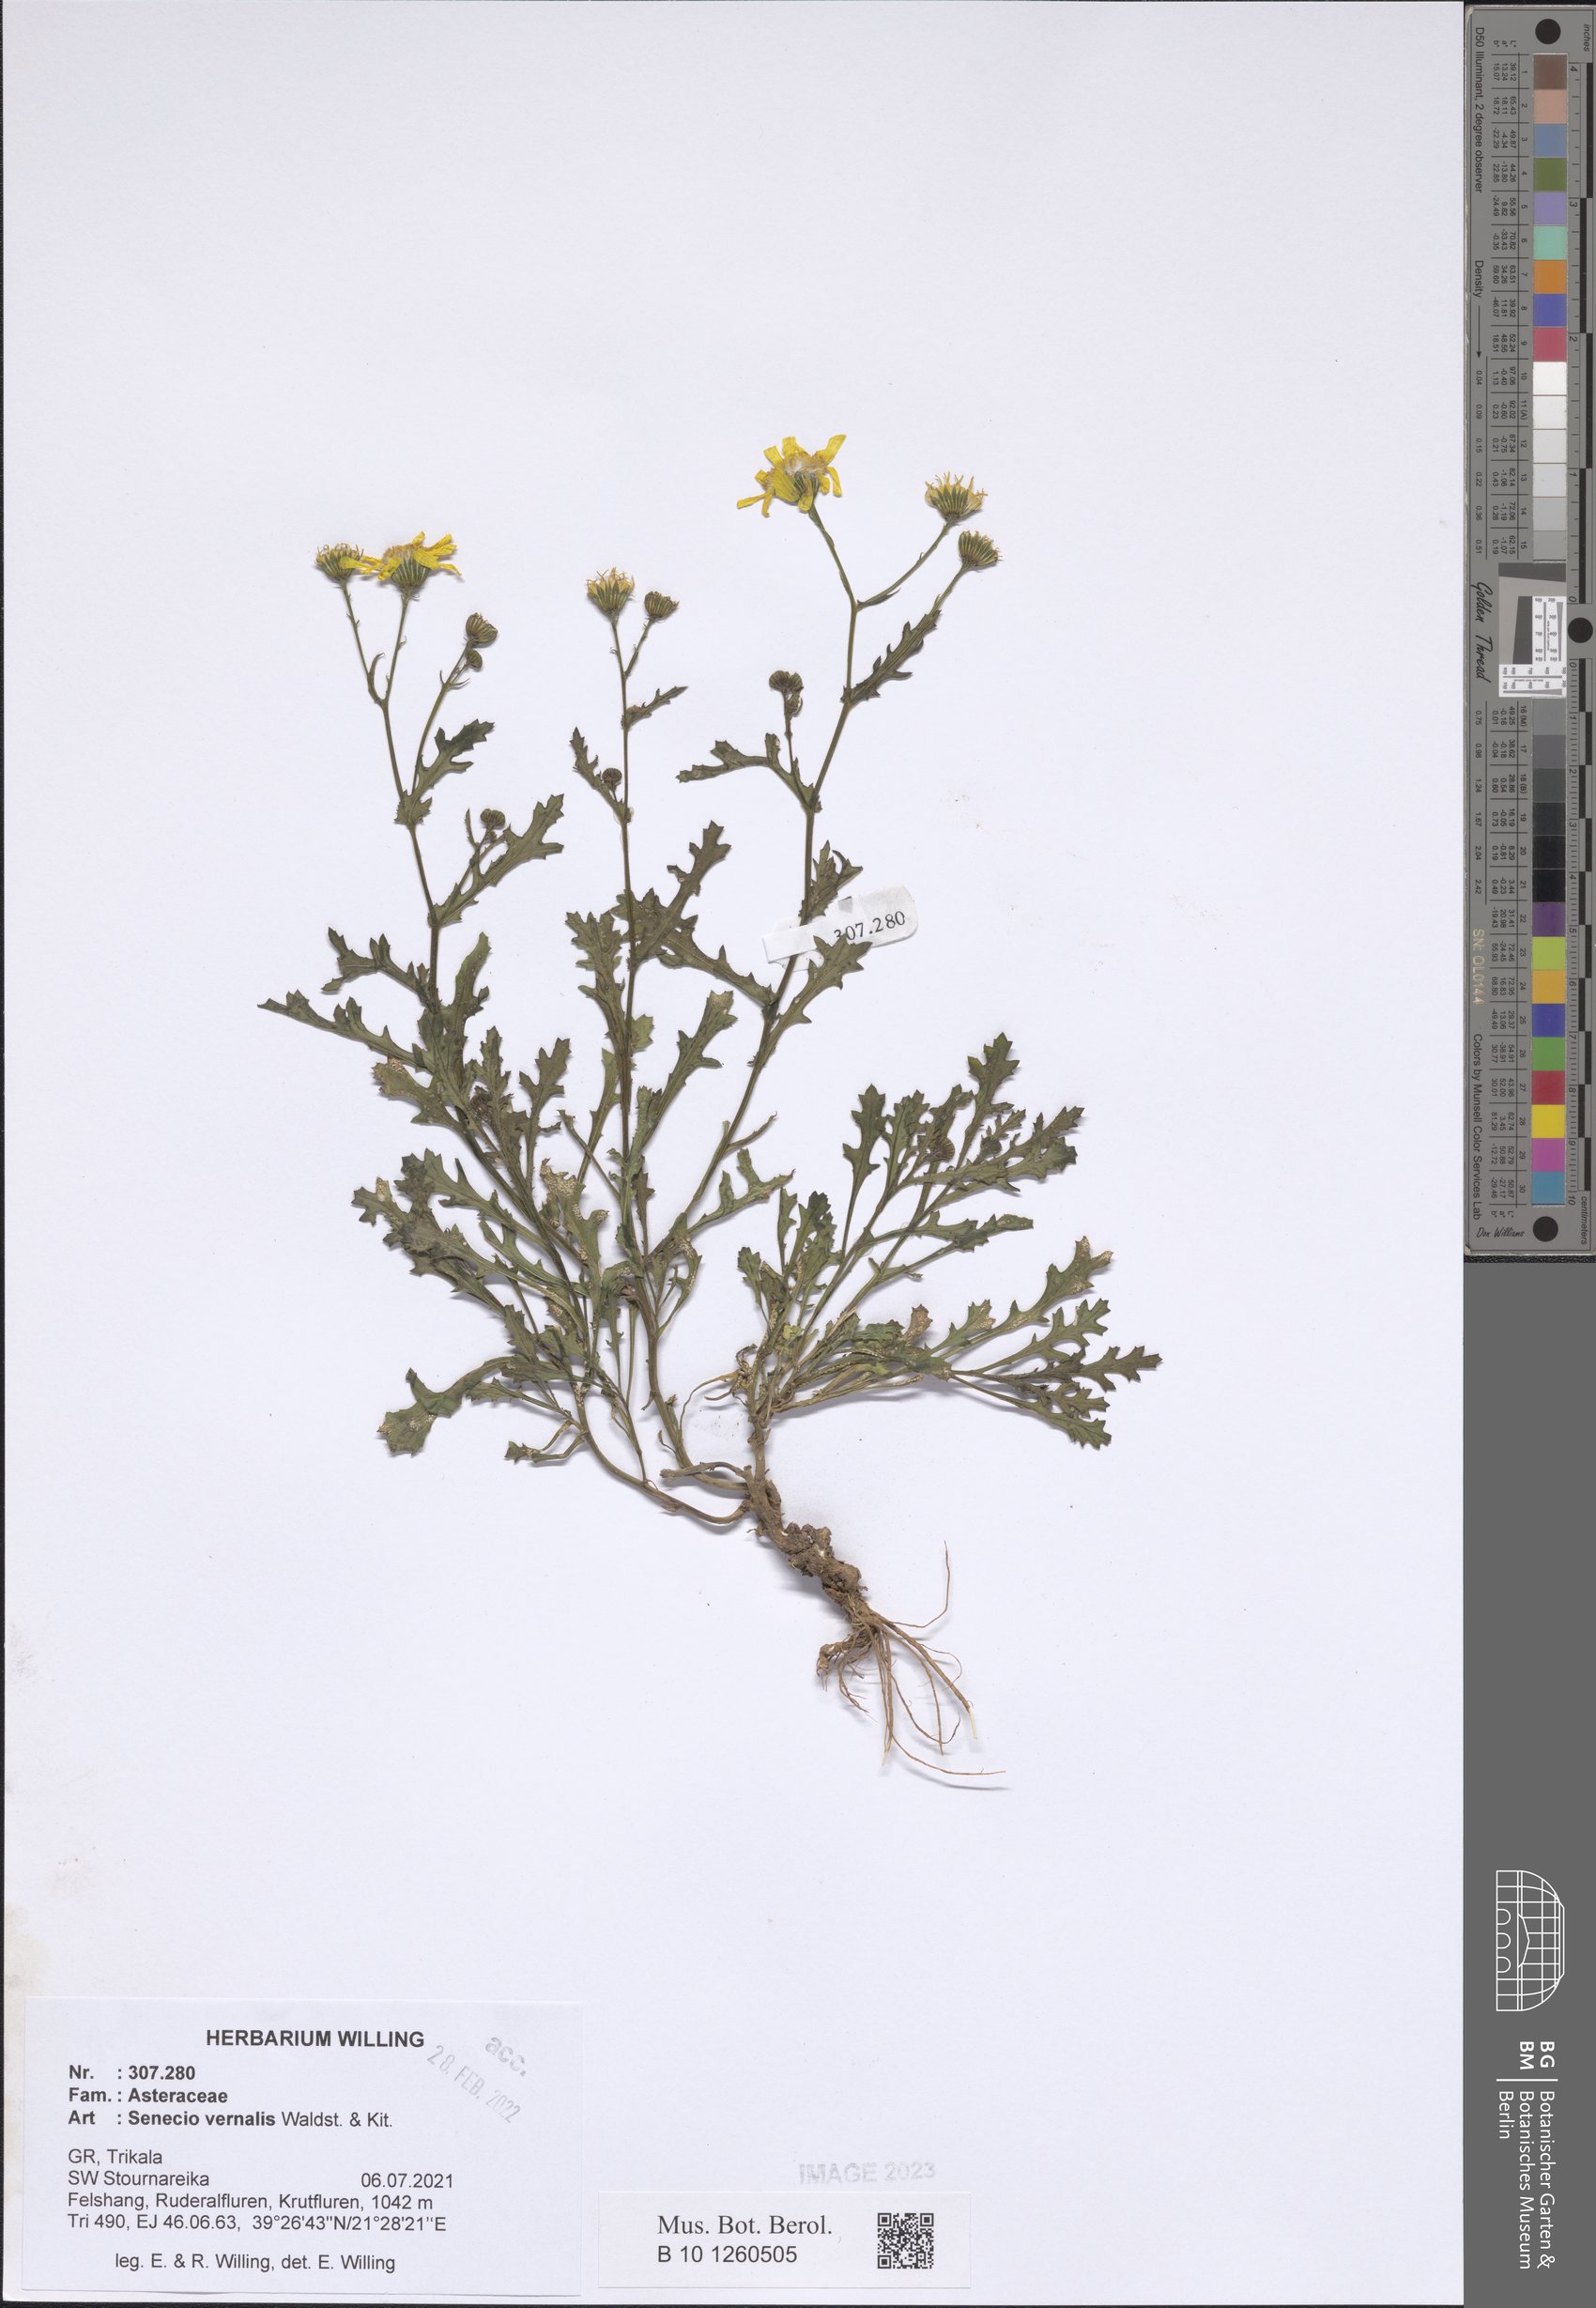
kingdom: Plantae
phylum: Tracheophyta
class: Magnoliopsida
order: Asterales
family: Asteraceae
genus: Senecio
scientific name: Senecio vernalis
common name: Eastern groundsel
